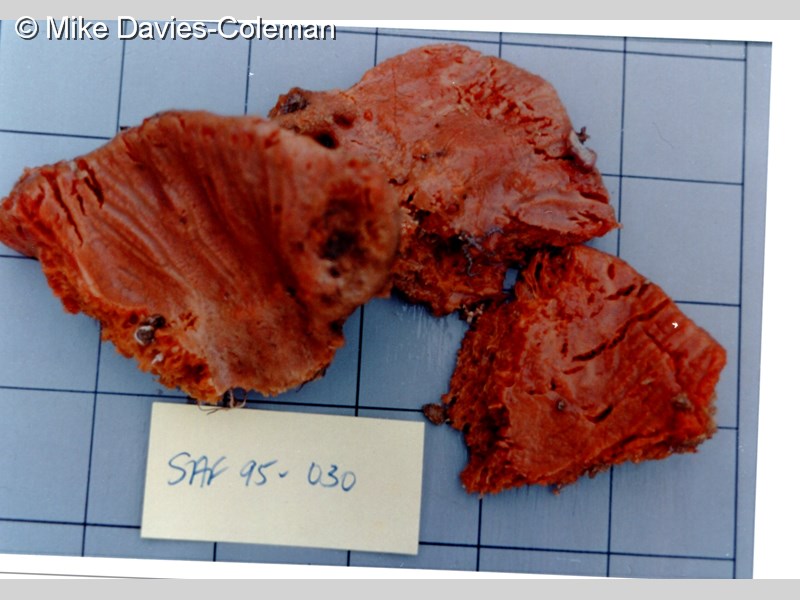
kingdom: Animalia
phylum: Porifera
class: Demospongiae
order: Poecilosclerida
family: Tedaniidae
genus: Hemitedania
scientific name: Hemitedania
